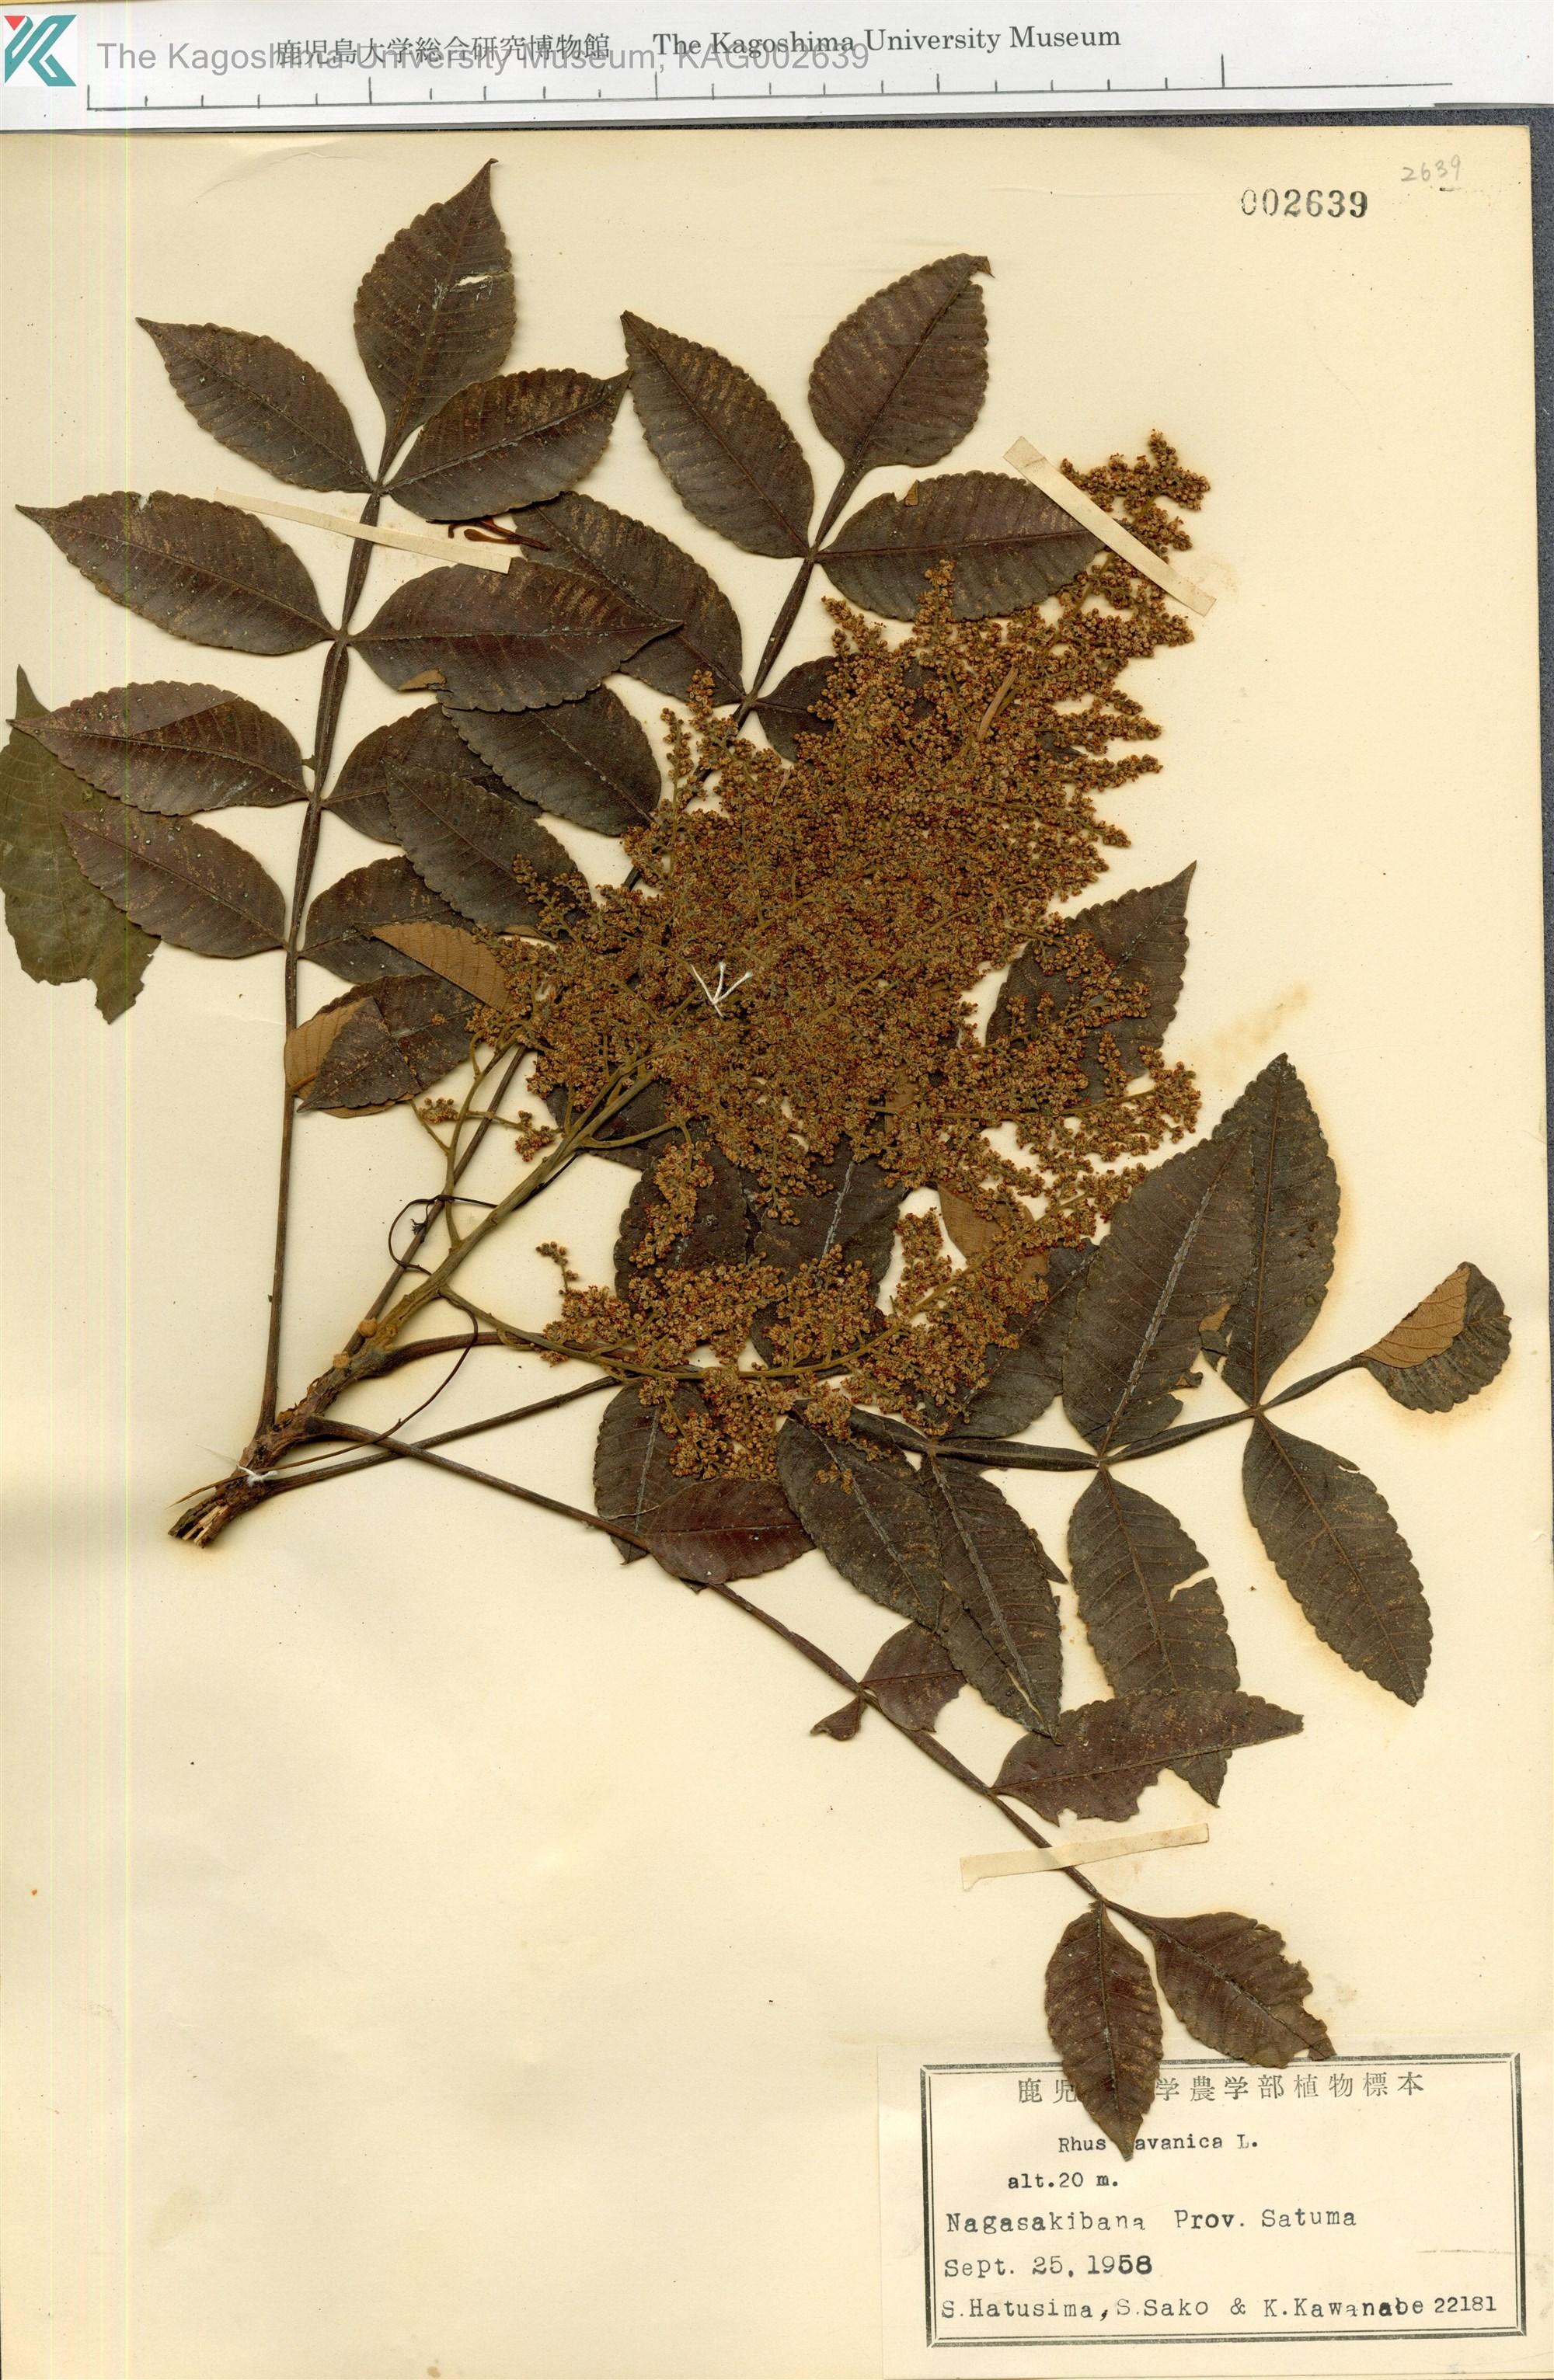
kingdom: Plantae
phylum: Tracheophyta
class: Magnoliopsida
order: Sapindales
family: Simaroubaceae
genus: Brucea
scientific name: Brucea javanica
